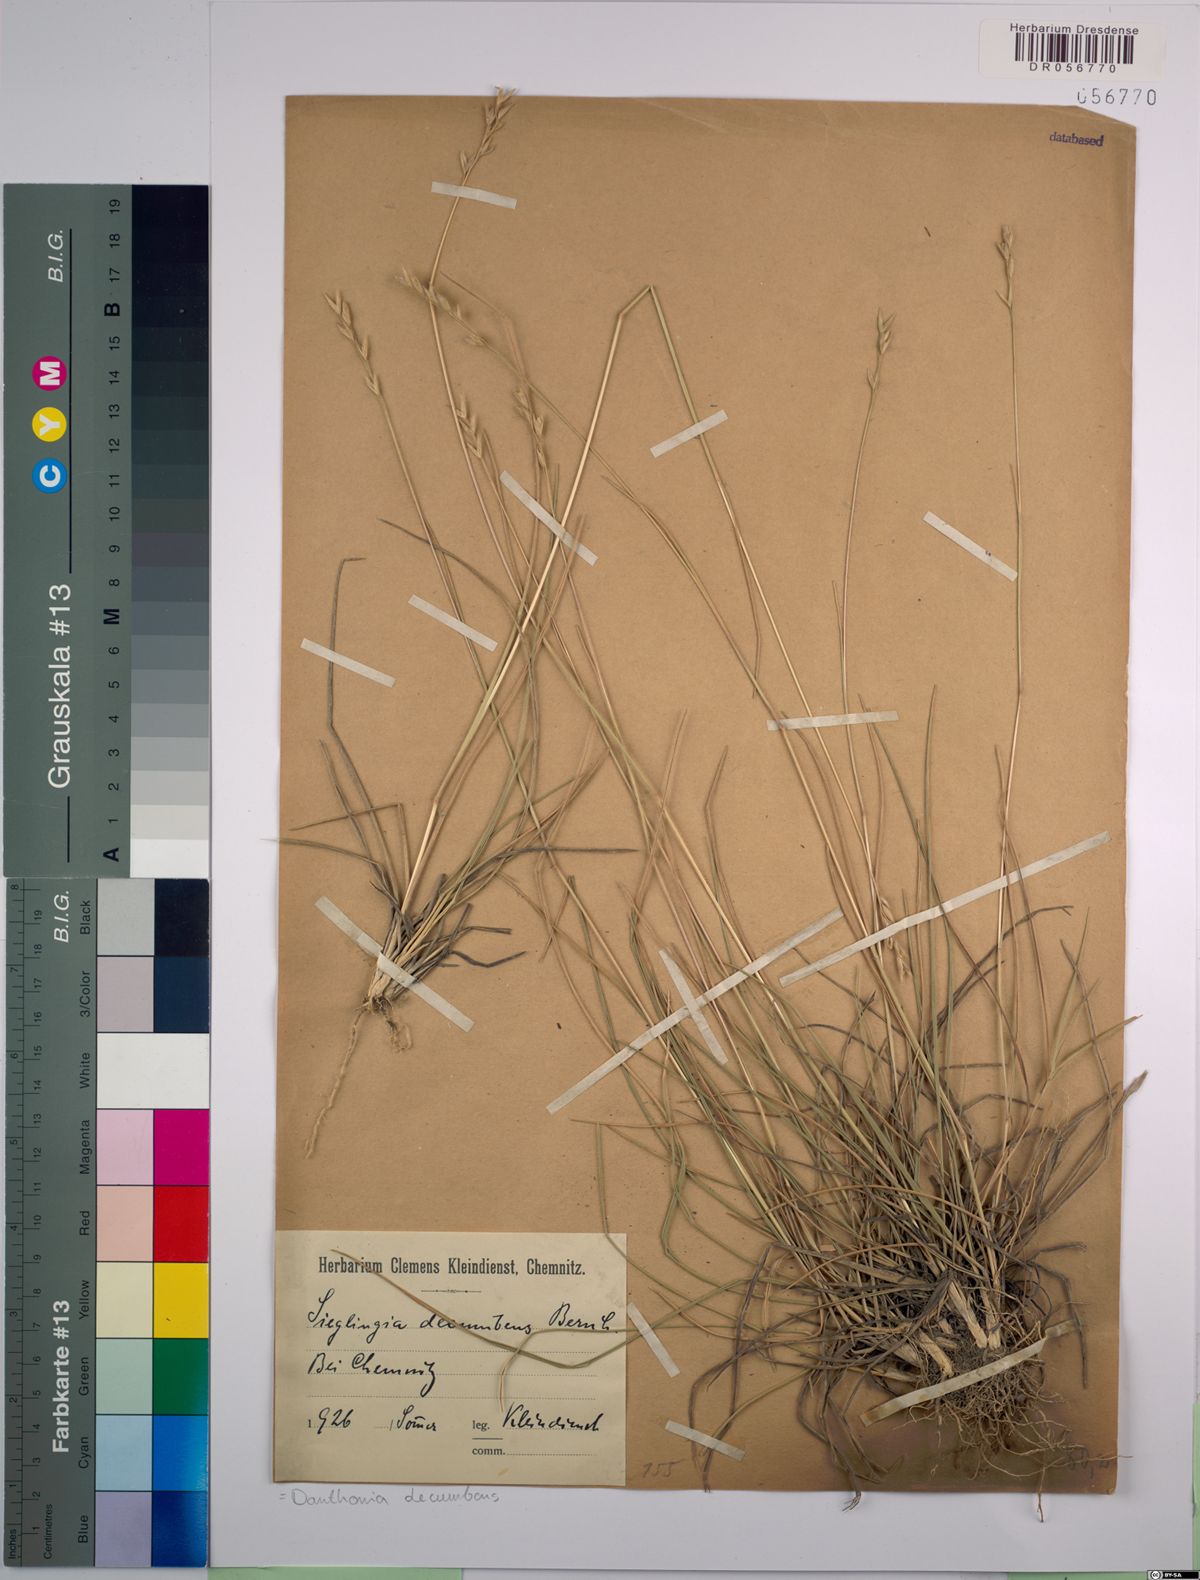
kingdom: Plantae
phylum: Tracheophyta
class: Liliopsida
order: Poales
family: Poaceae
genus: Danthonia
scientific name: Danthonia decumbens
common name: Common heathgrass
